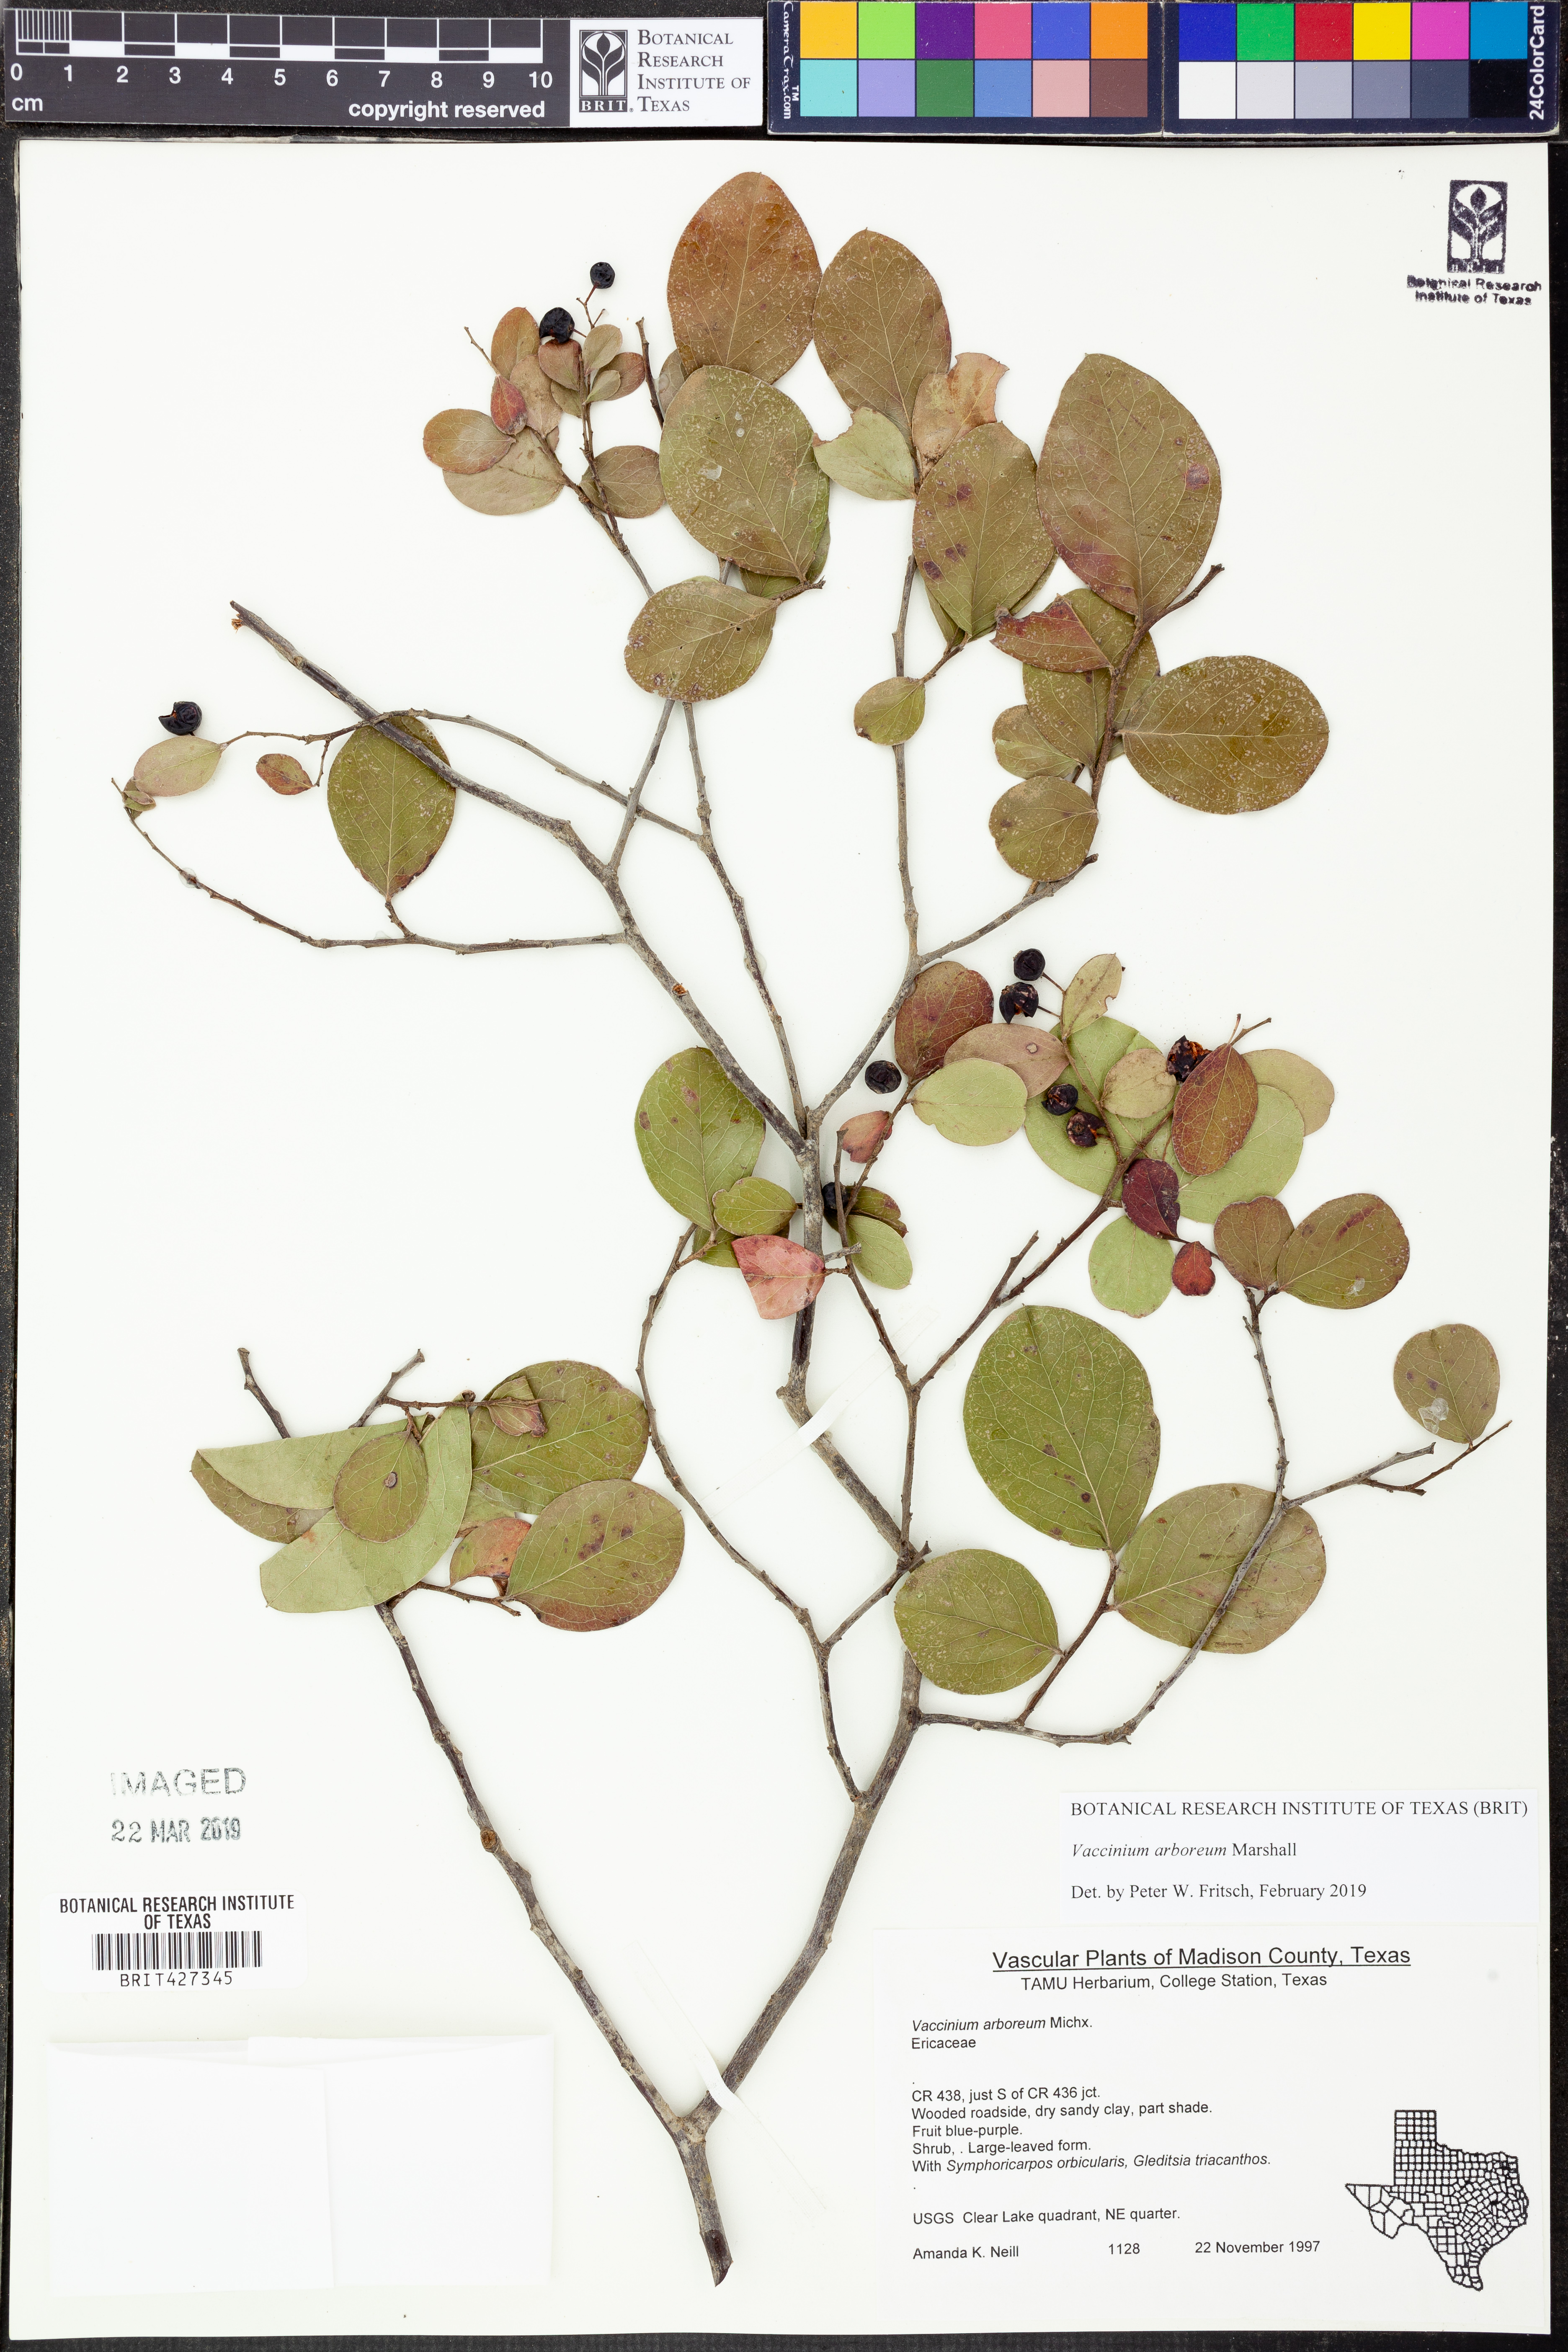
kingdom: Plantae
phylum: Tracheophyta
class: Magnoliopsida
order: Ericales
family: Ericaceae
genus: Vaccinium
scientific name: Vaccinium arboreum
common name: Farkleberry
